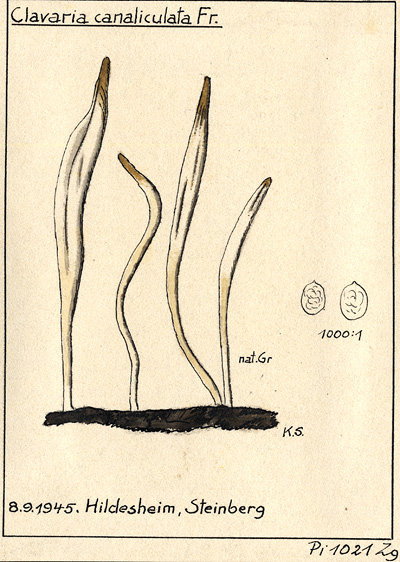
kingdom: Fungi
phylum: Basidiomycota
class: Agaricomycetes
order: Cantharellales
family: Hydnaceae
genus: Clavulina
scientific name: Clavulina rugosa
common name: Wrinkled club
